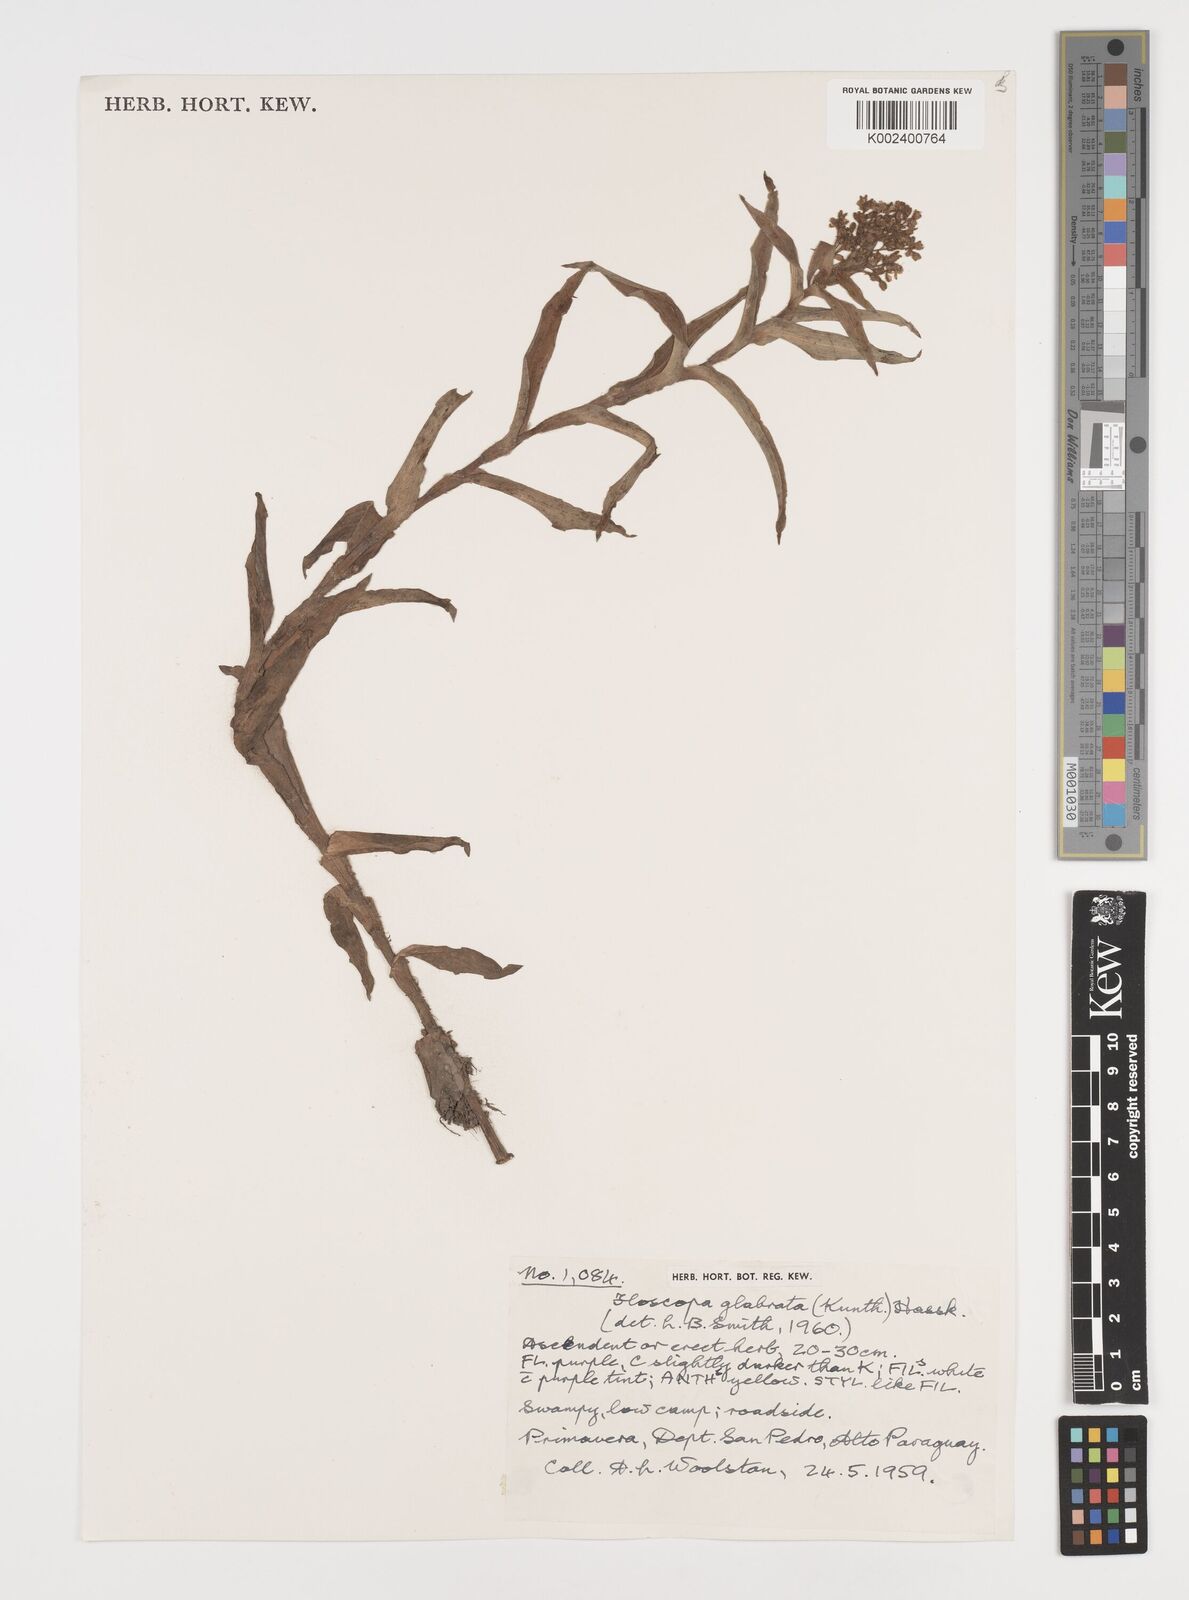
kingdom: Plantae
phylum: Tracheophyta
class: Liliopsida
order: Commelinales
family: Commelinaceae
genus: Floscopa
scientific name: Floscopa glabrata
